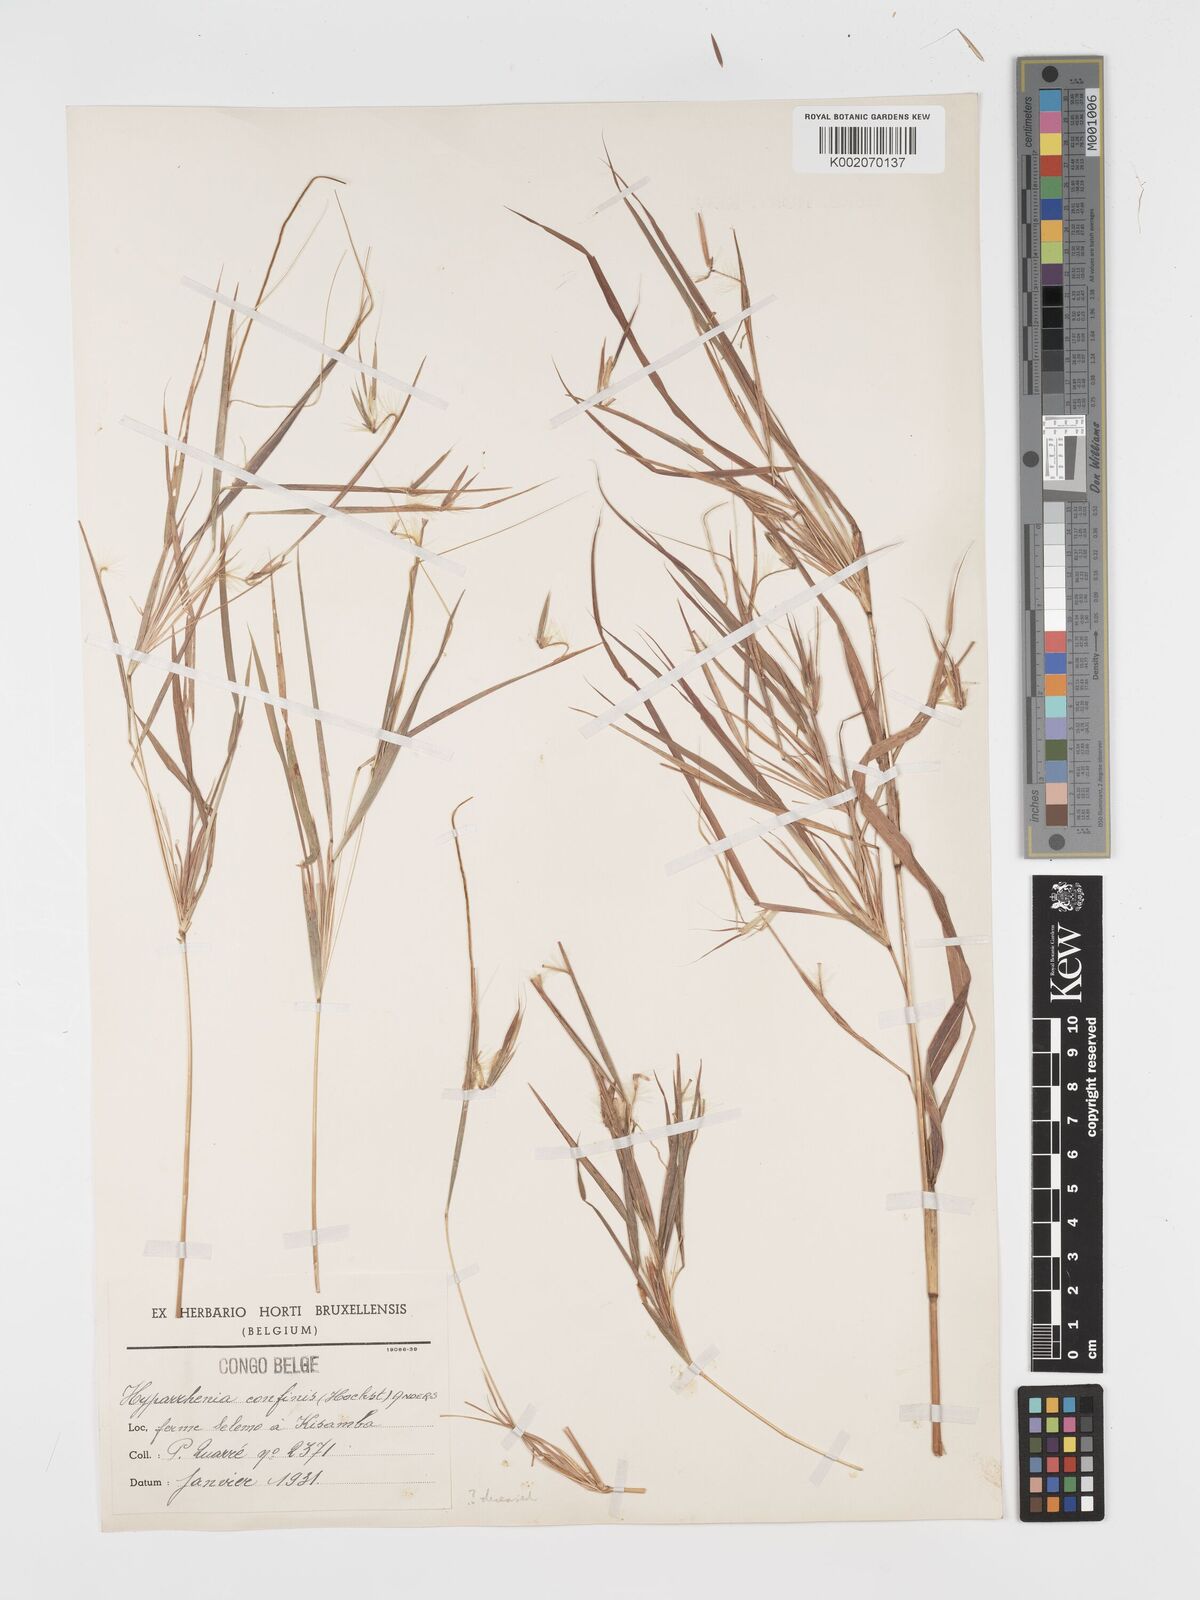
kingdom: Plantae
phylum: Tracheophyta
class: Liliopsida
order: Poales
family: Poaceae
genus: Hyparrhenia
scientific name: Hyparrhenia niariensis
